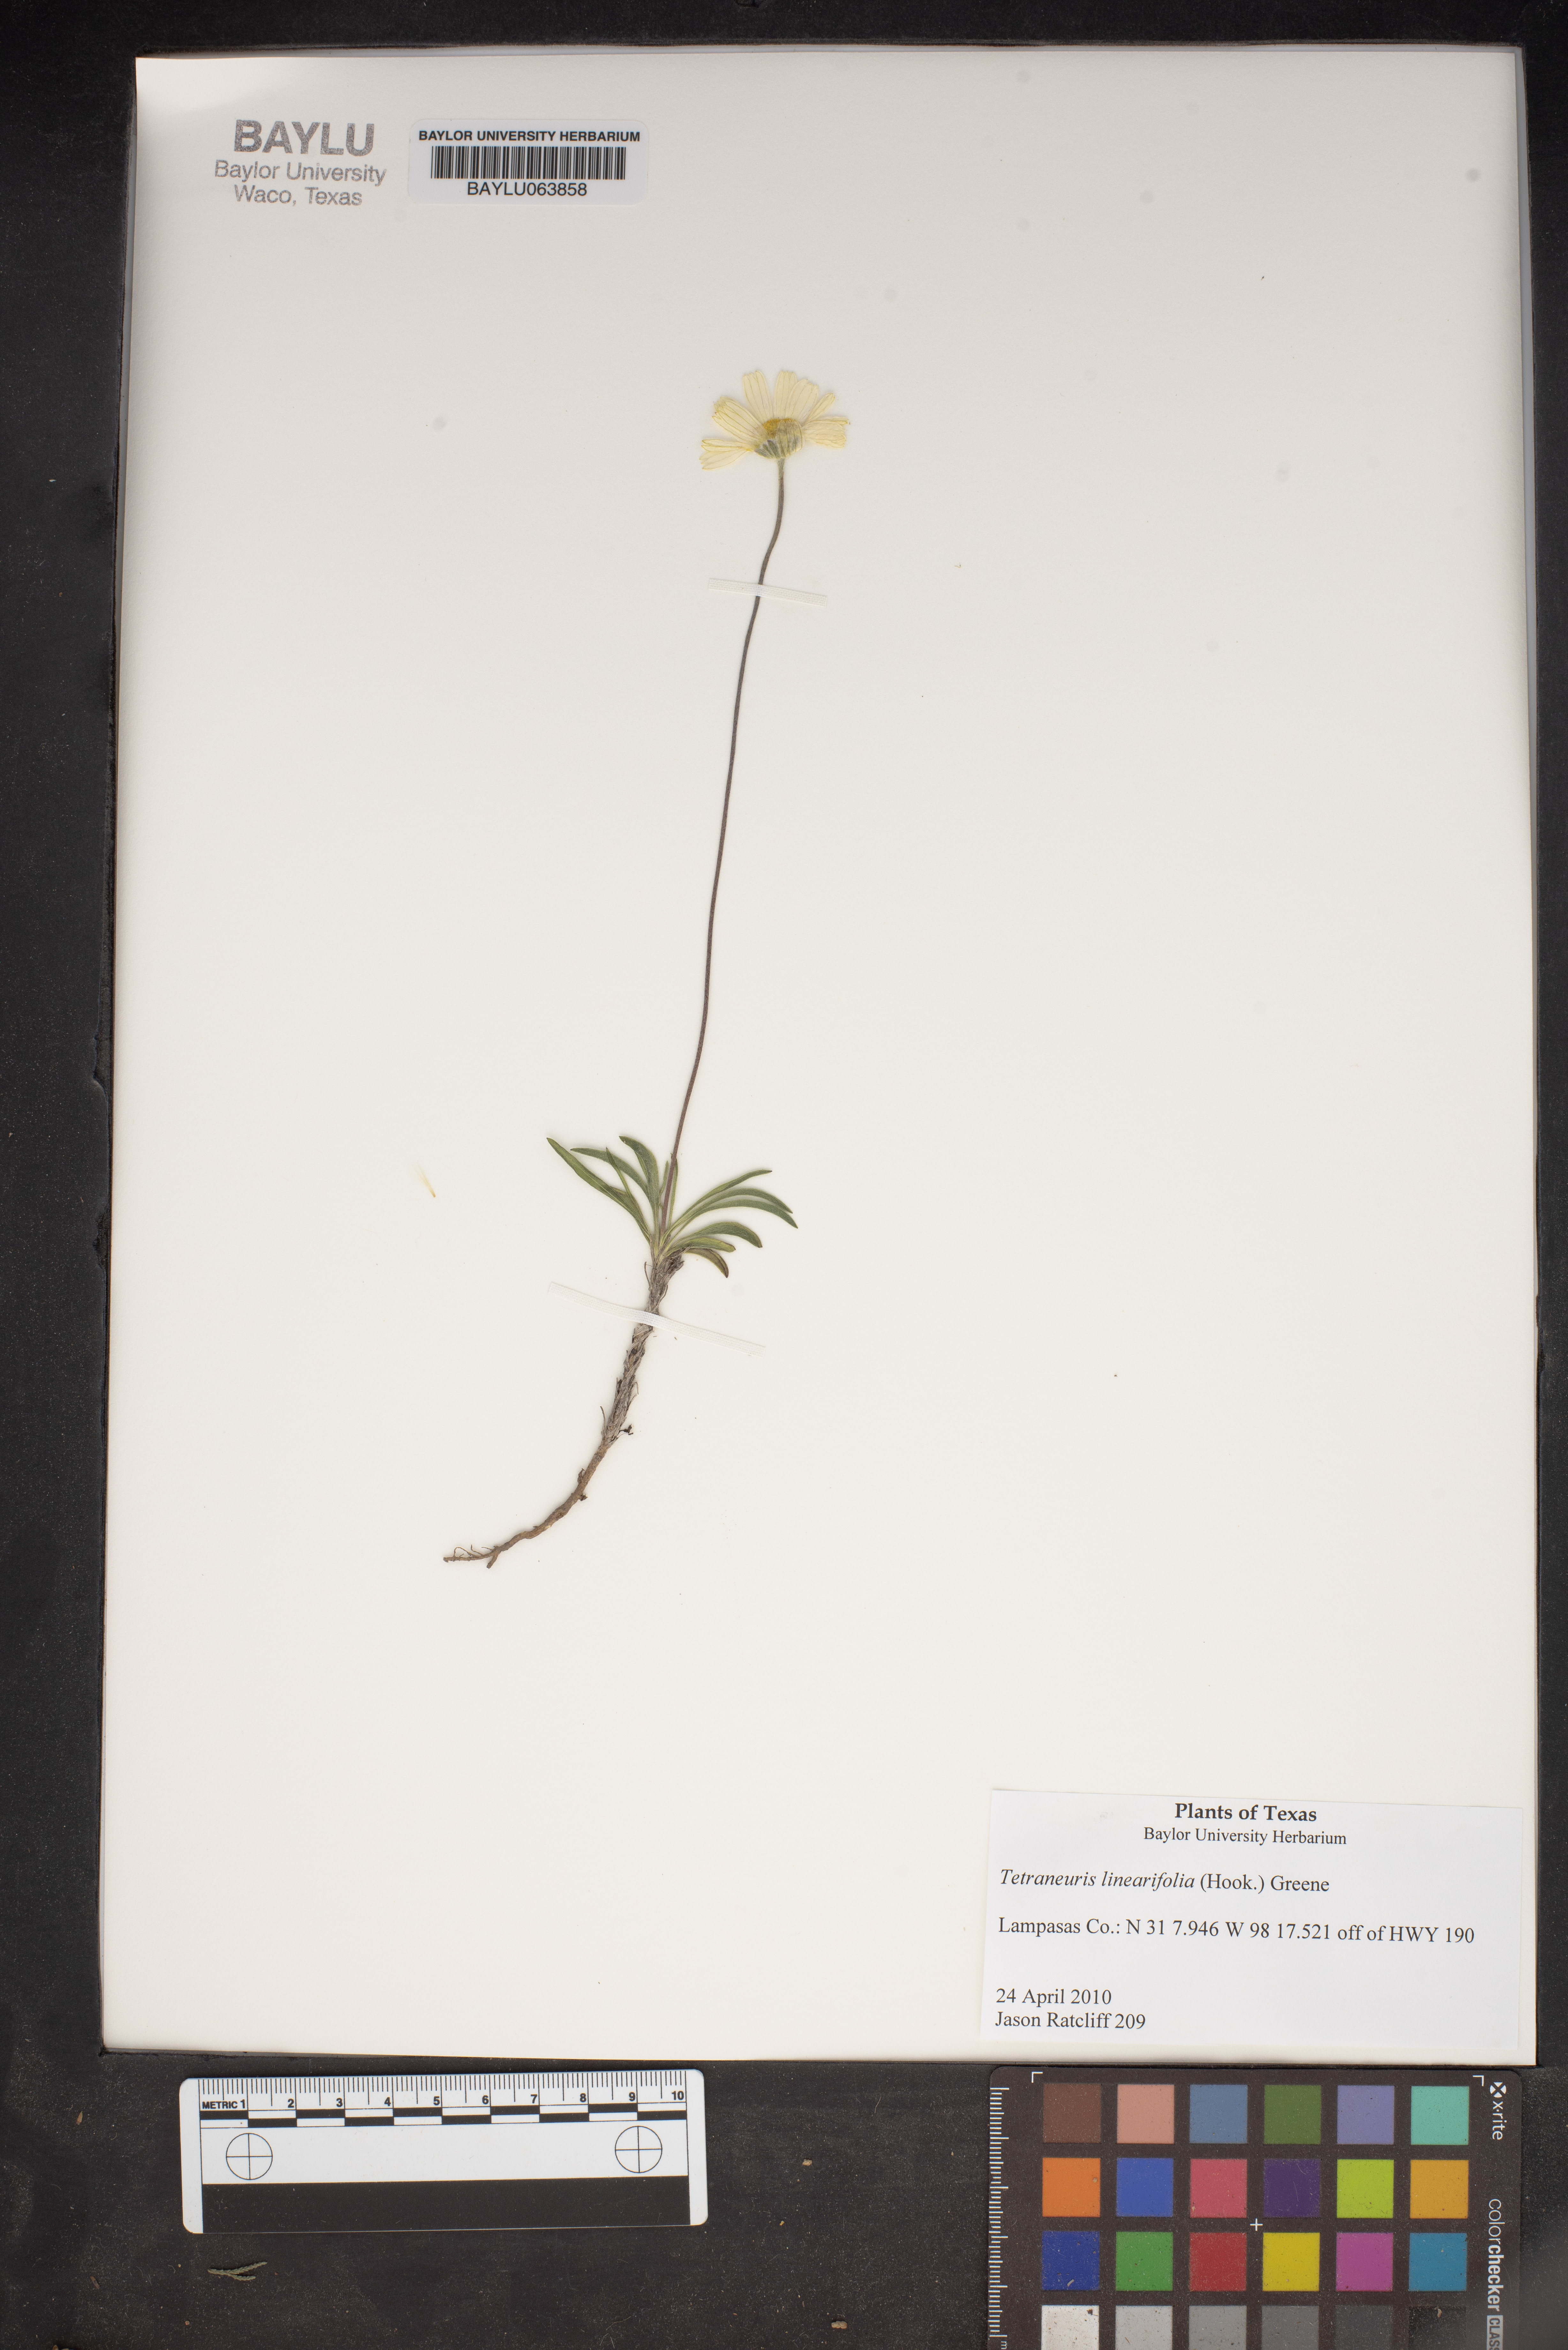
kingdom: Plantae
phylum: Tracheophyta
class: Magnoliopsida
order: Asterales
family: Asteraceae
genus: Tetraneuris
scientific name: Tetraneuris linearifolia
